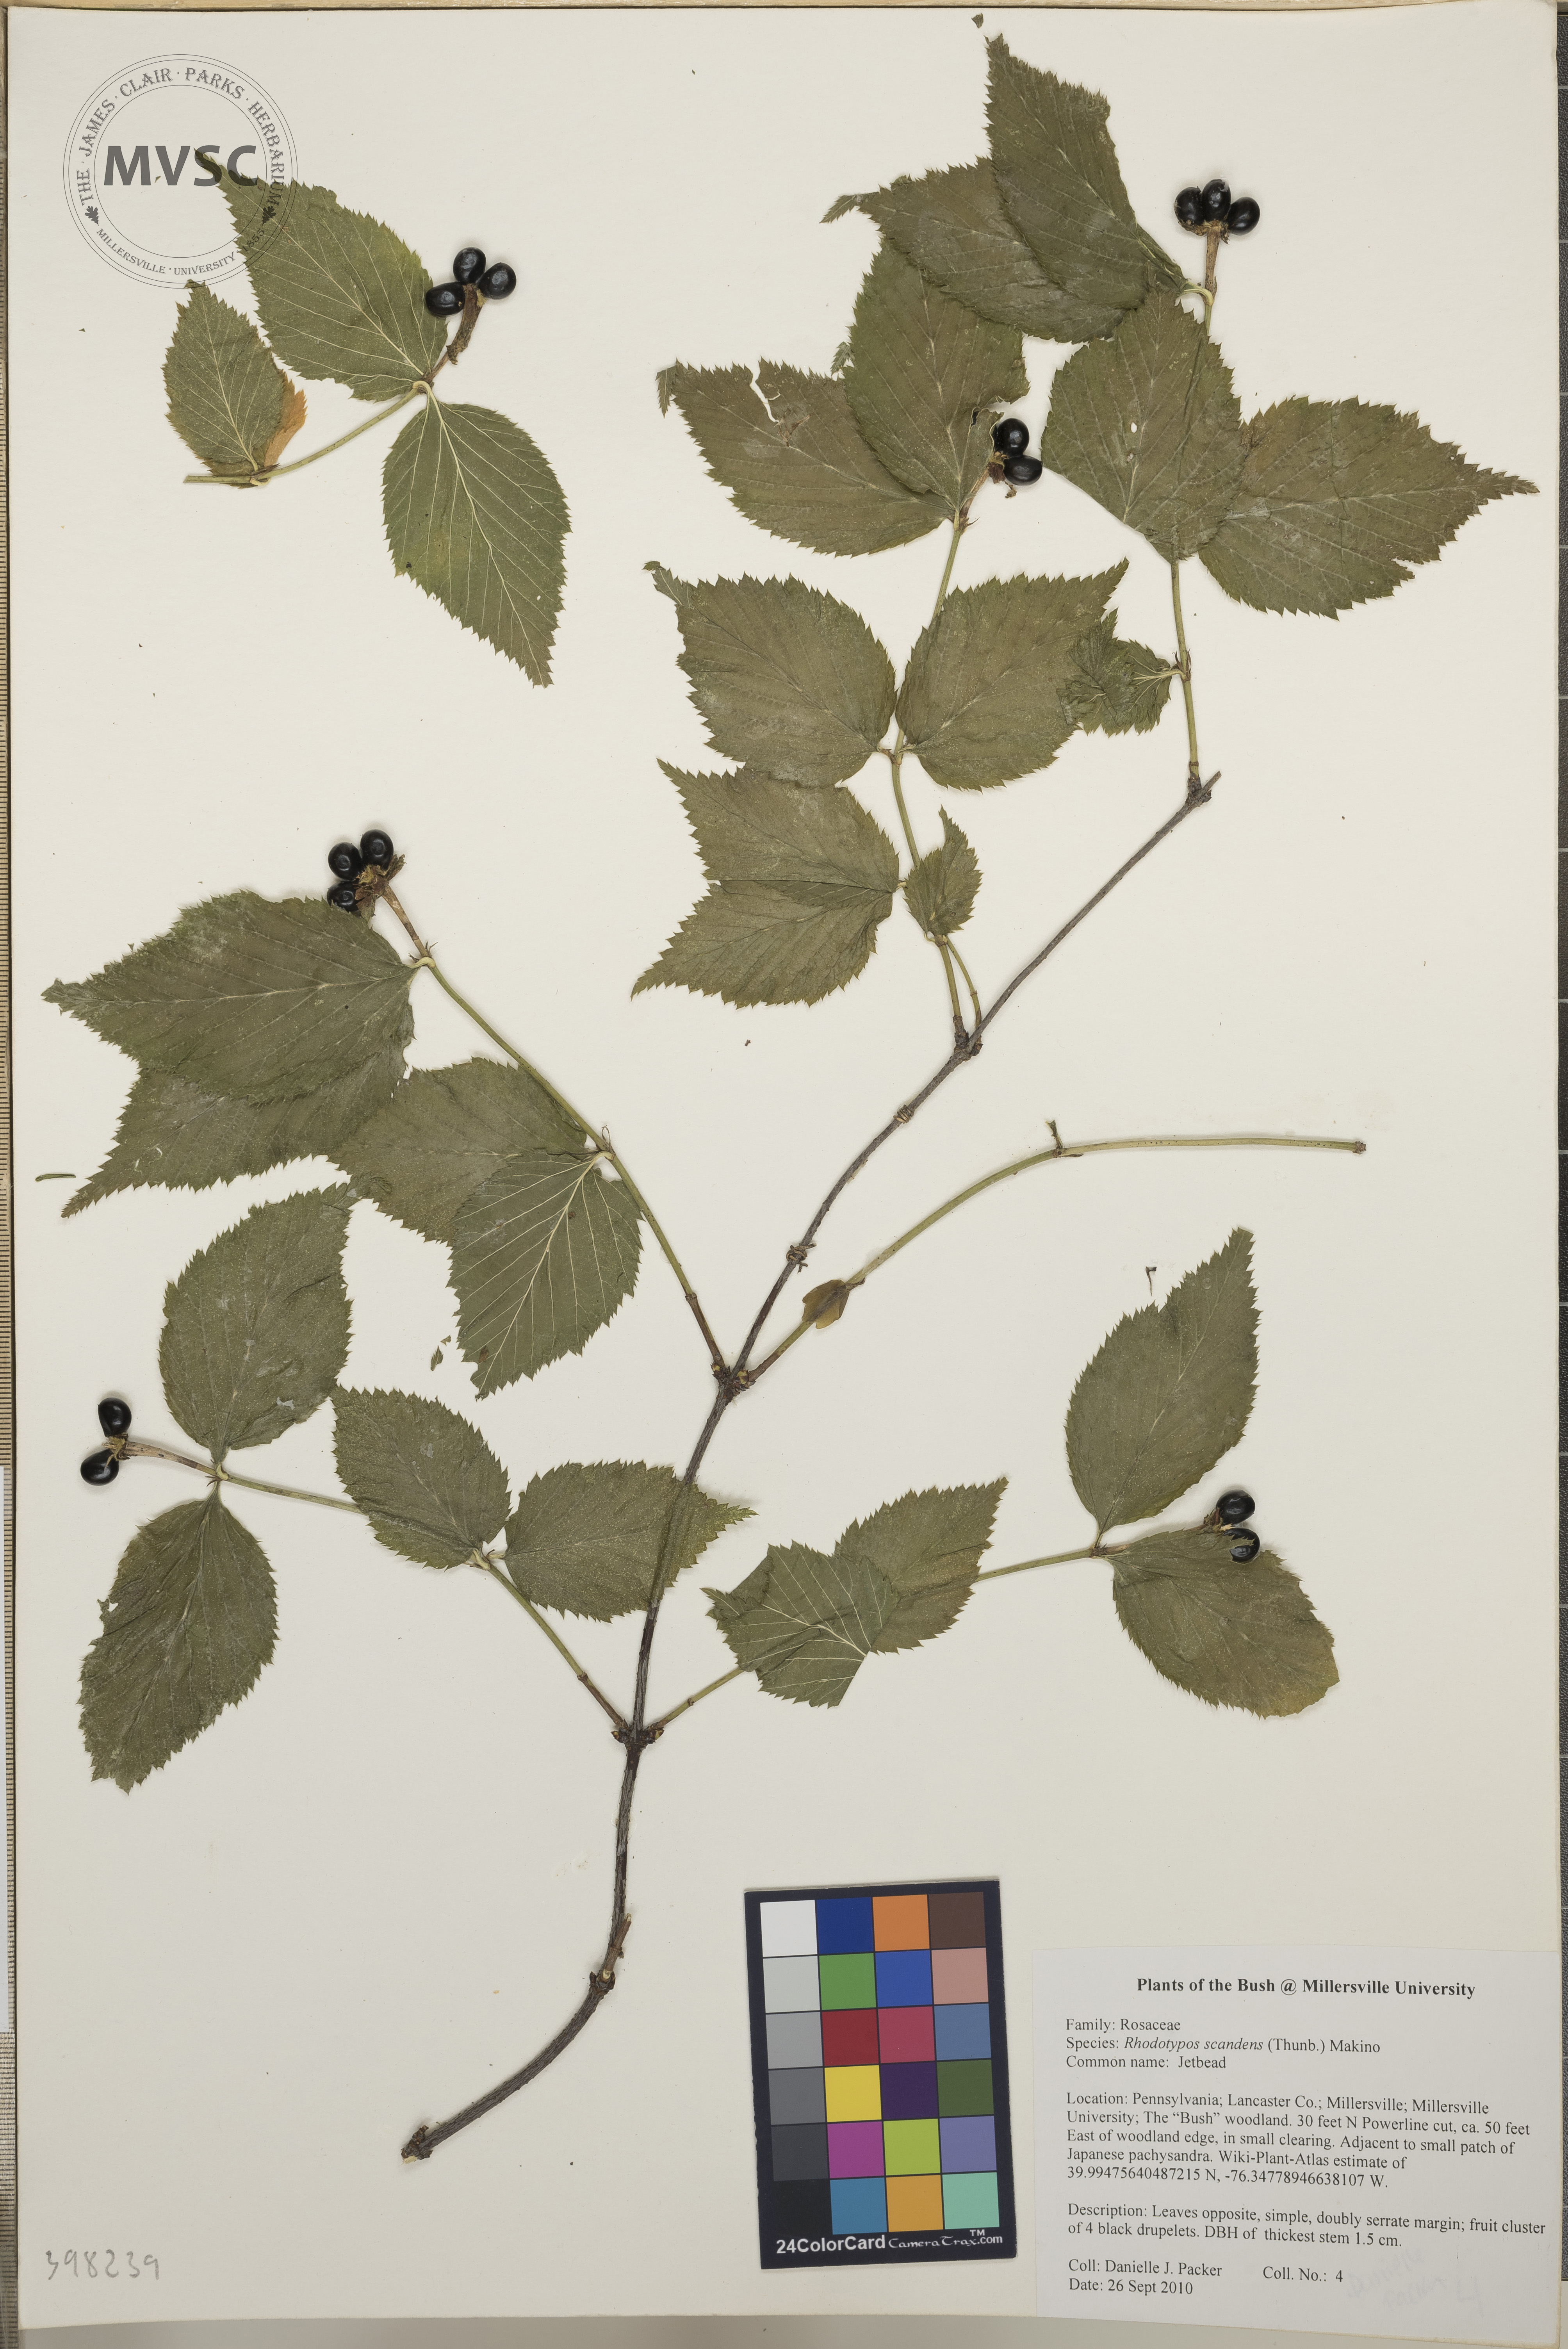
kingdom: Plantae
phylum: Tracheophyta
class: Magnoliopsida
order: Rosales
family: Rosaceae
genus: Rhodotypos
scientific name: Rhodotypos scandens
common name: Jetbead
